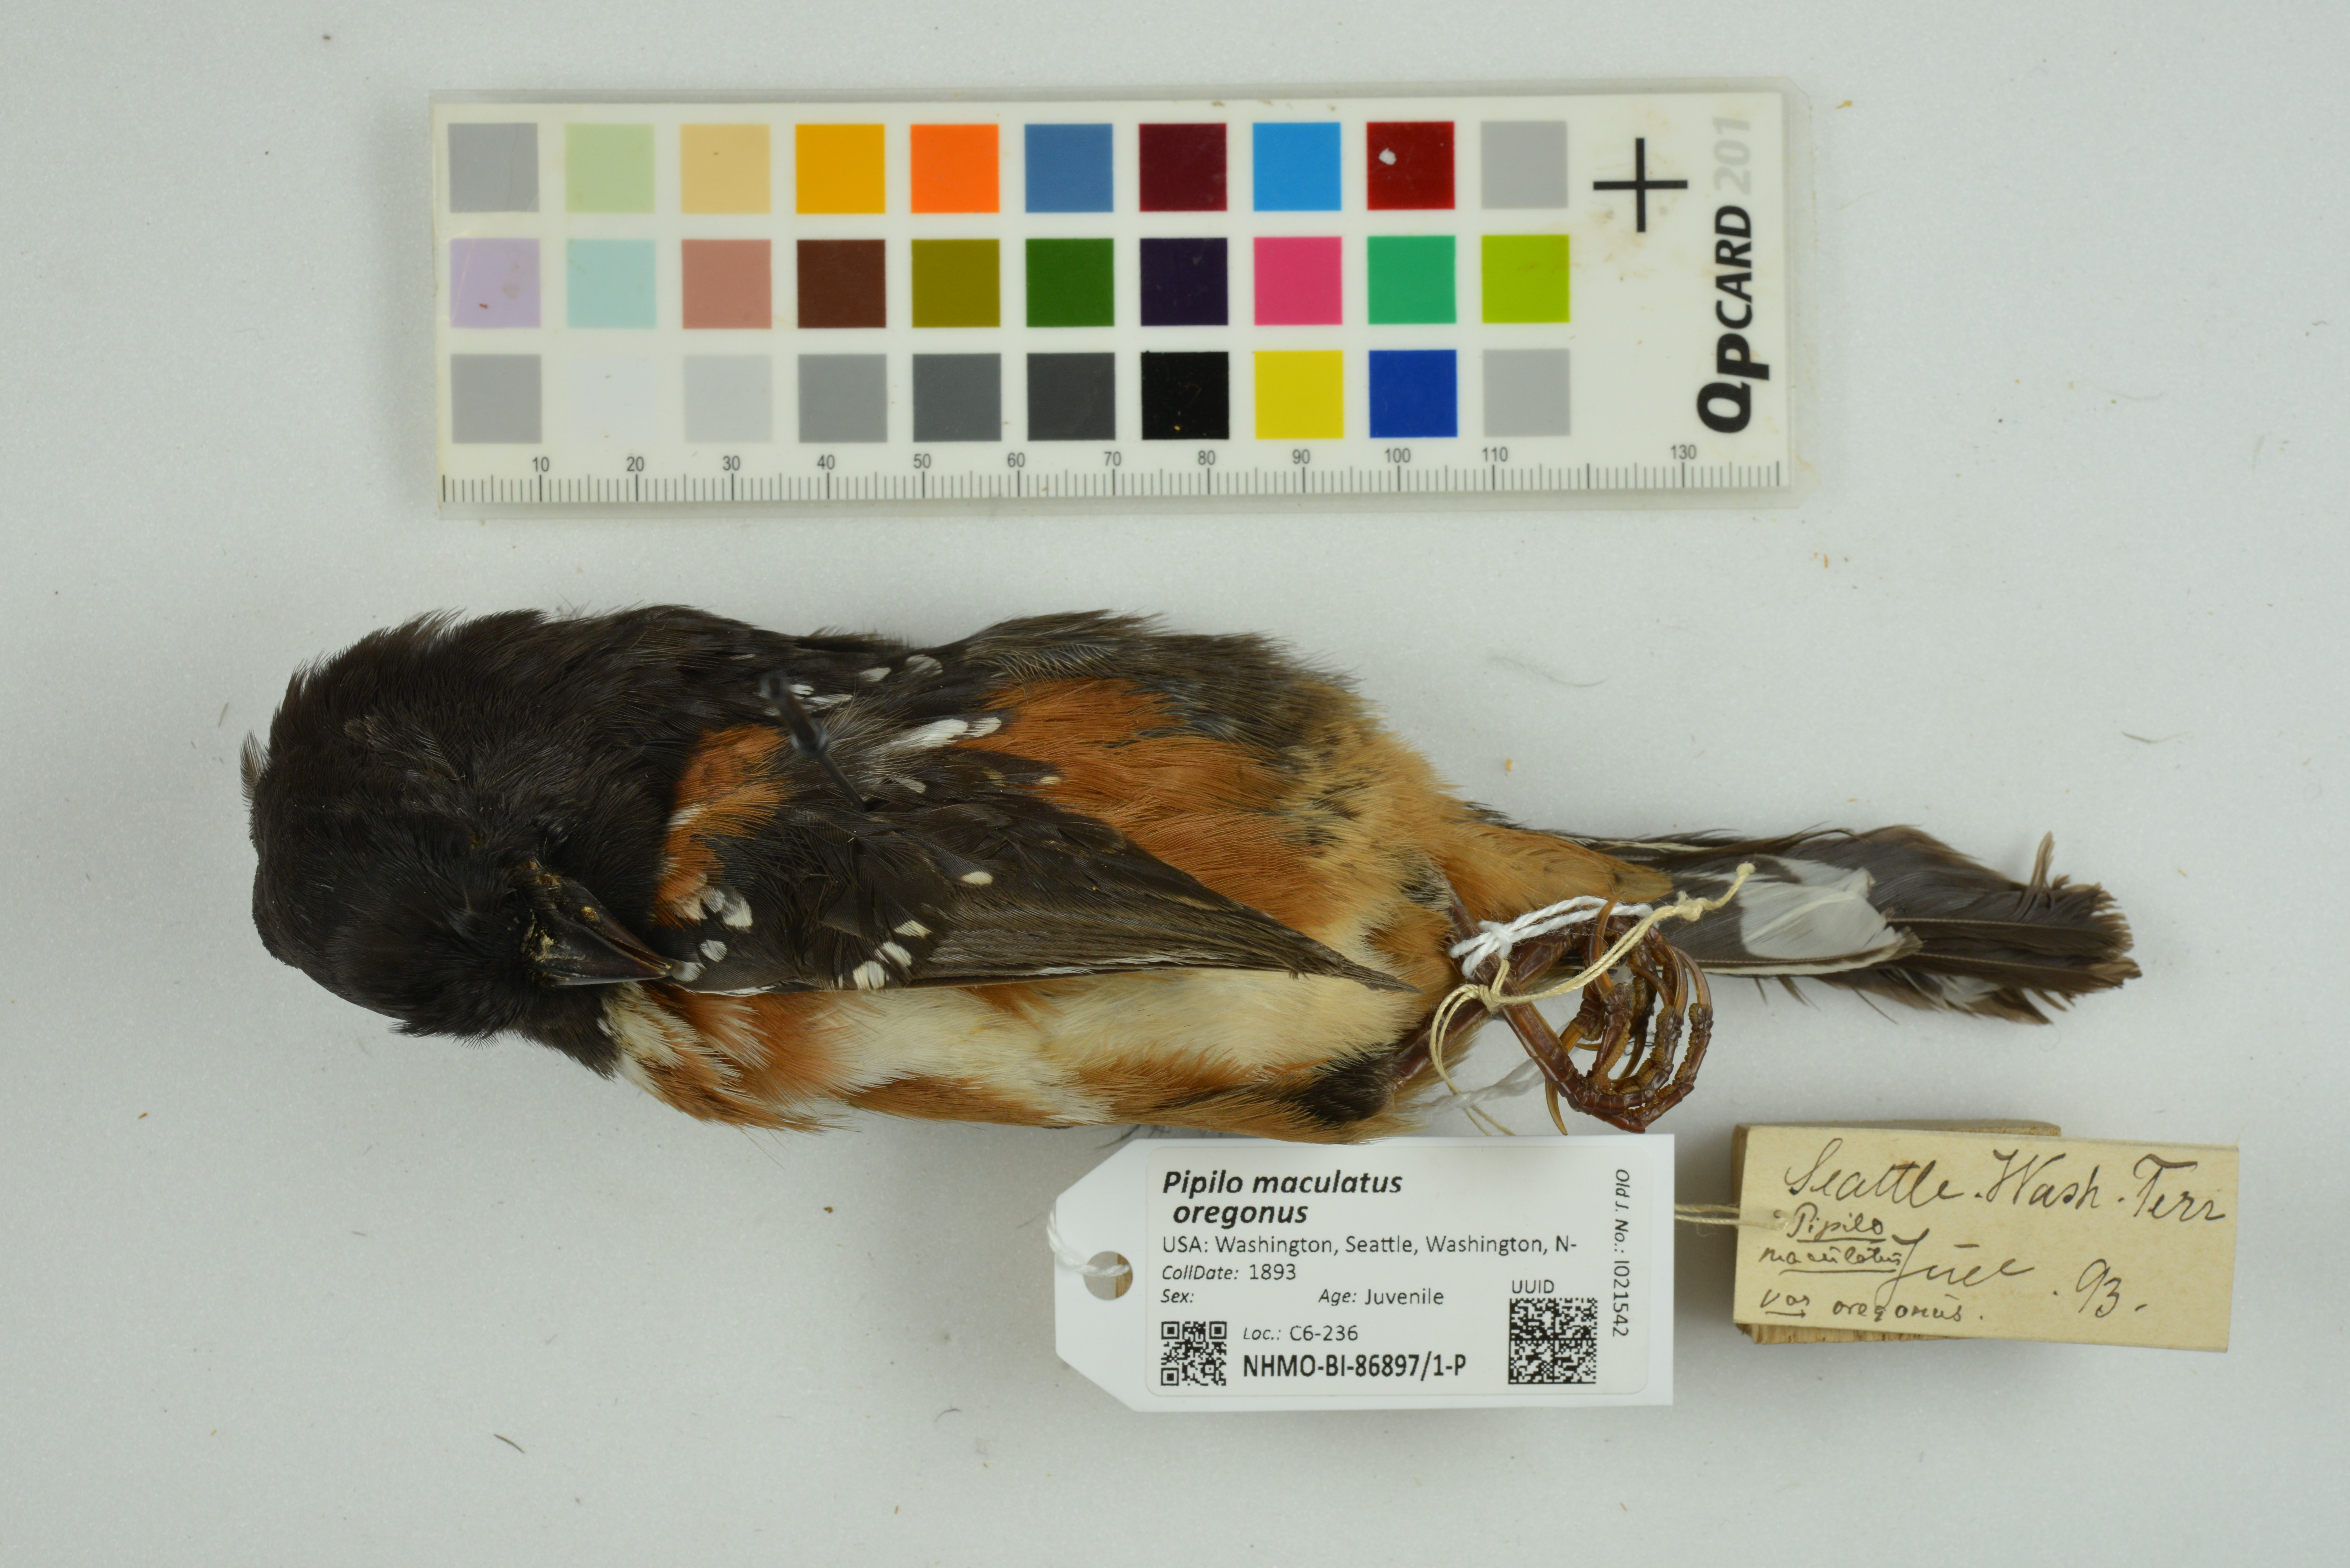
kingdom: Animalia
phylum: Chordata
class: Aves
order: Passeriformes
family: Passerellidae
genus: Pipilo
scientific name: Pipilo maculatus
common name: Spotted towhee
